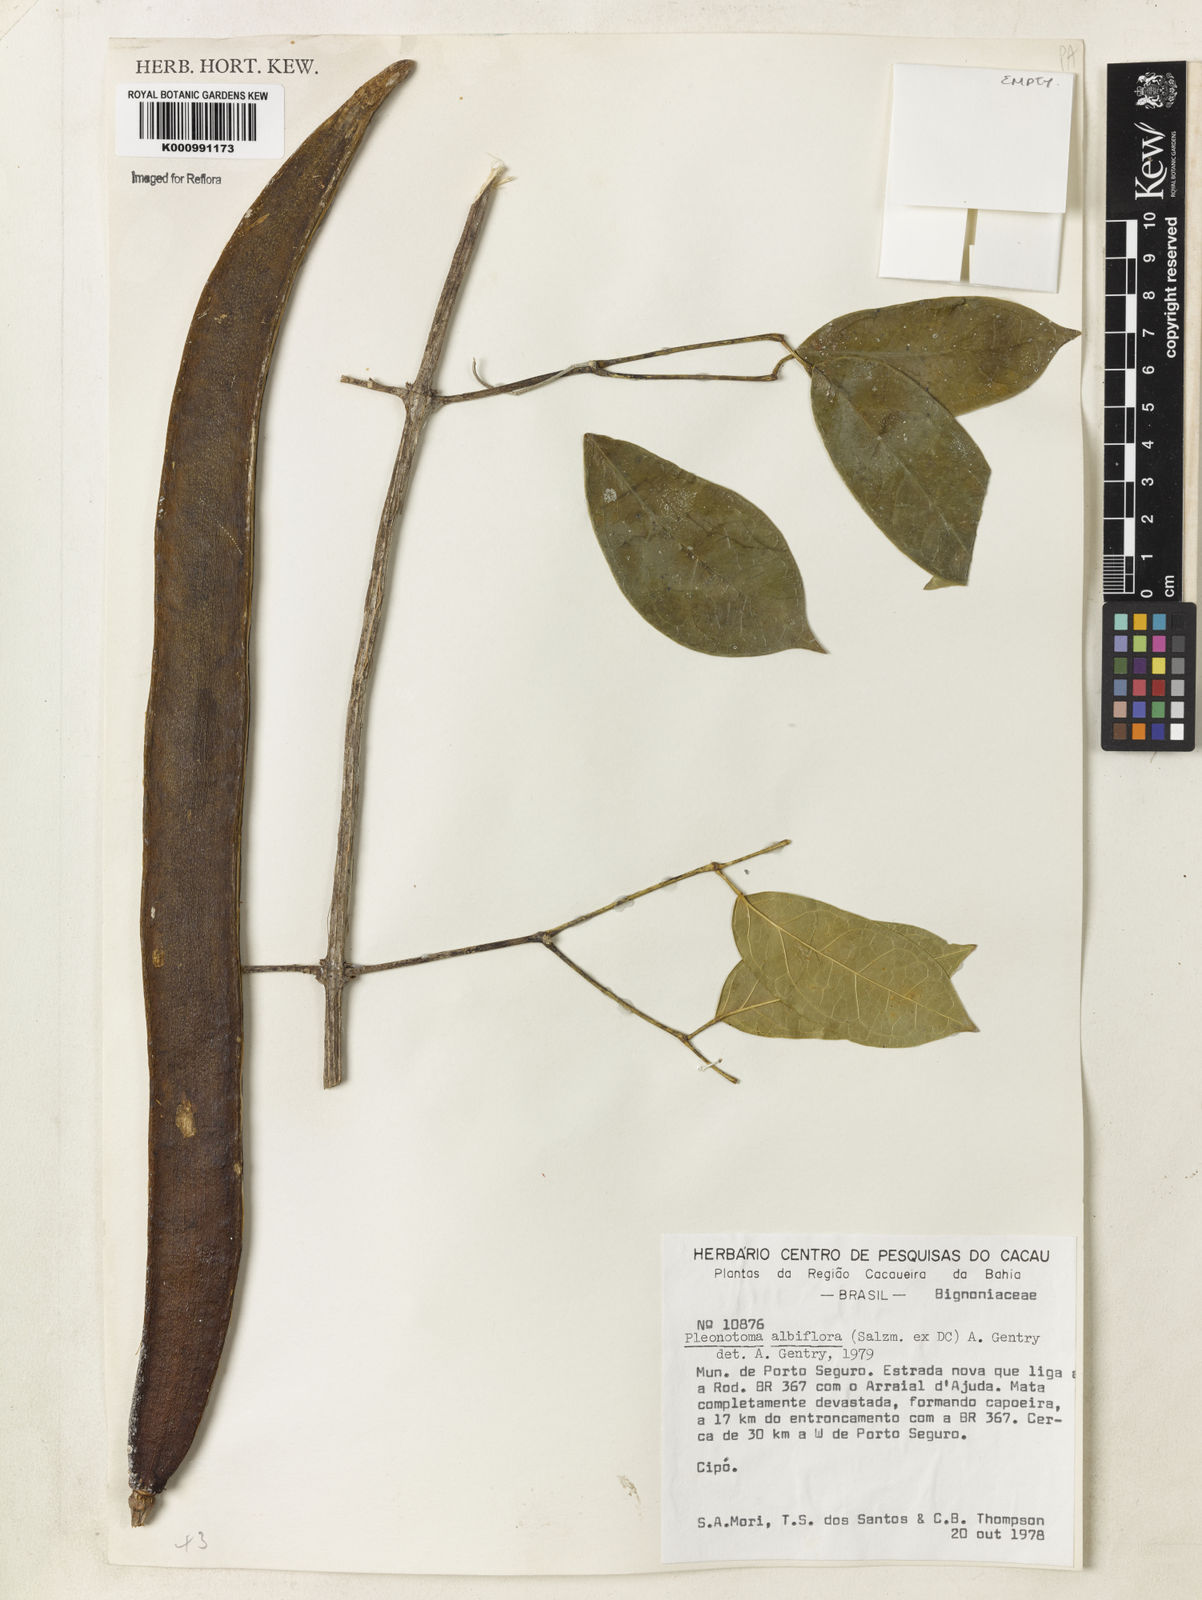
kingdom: Plantae
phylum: Tracheophyta
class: Magnoliopsida
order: Lamiales
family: Bignoniaceae
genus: Adenocalymma
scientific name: Adenocalymma albiflorum
